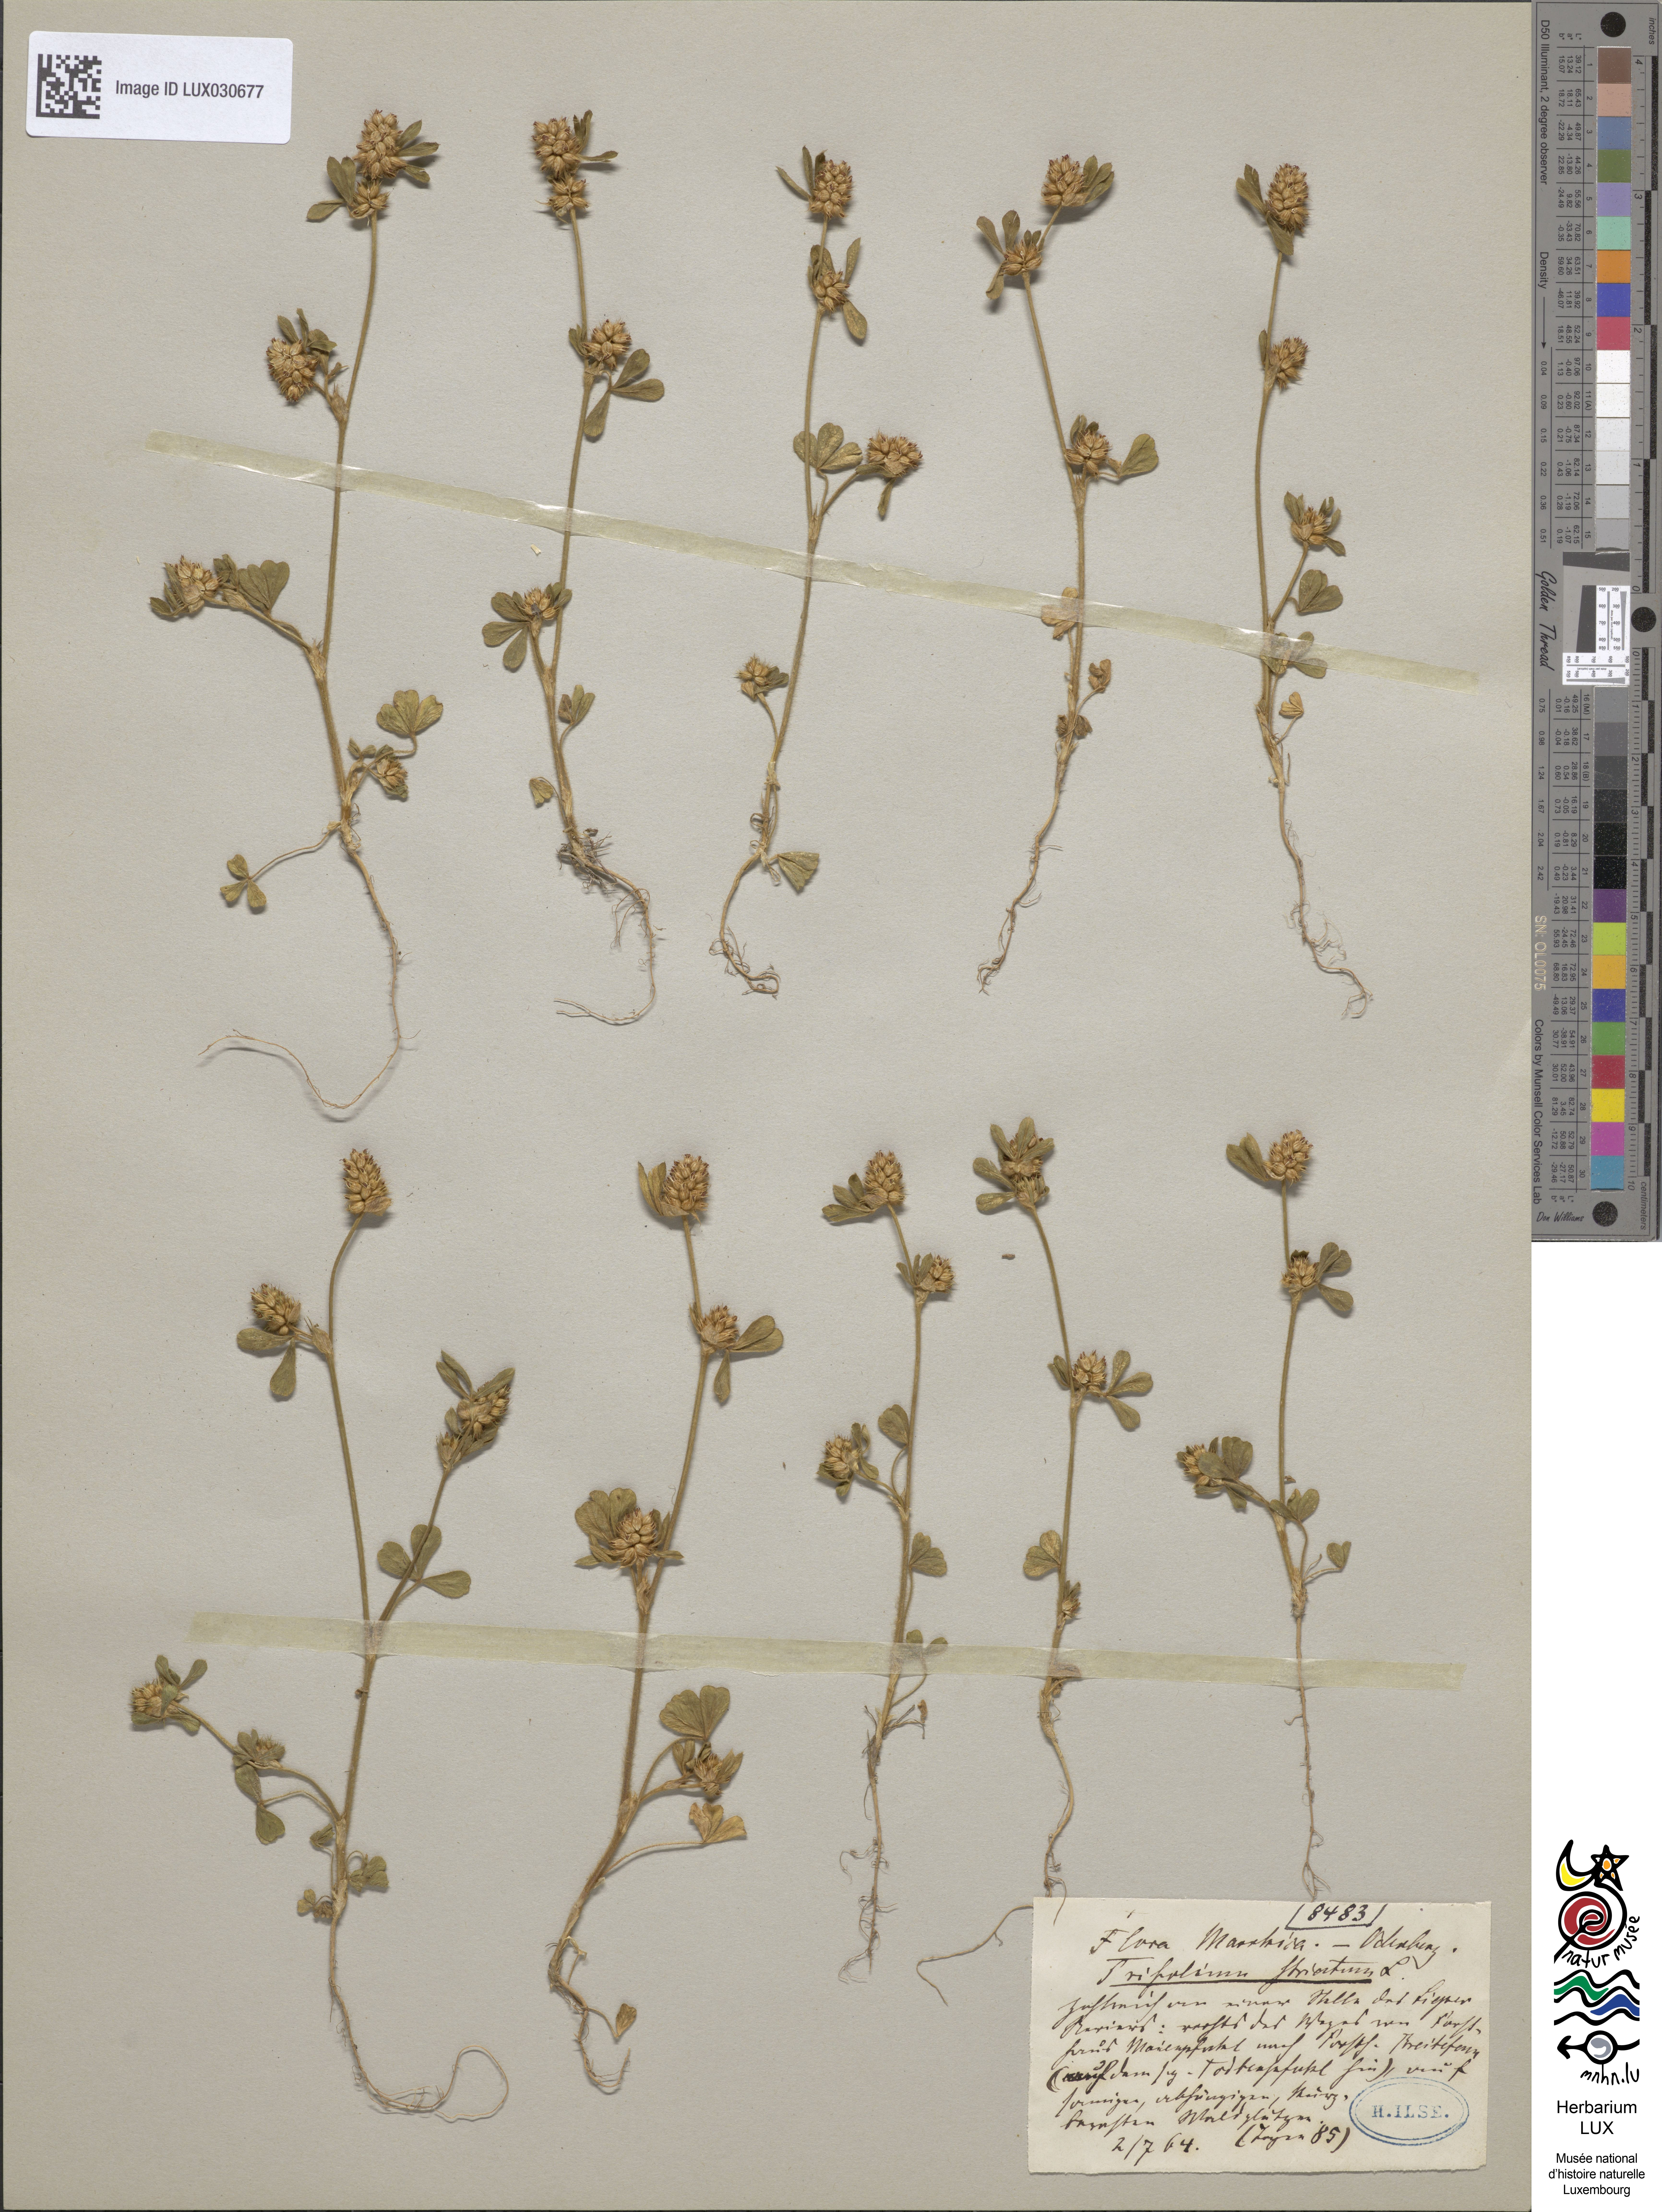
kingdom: Plantae
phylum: Tracheophyta
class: Magnoliopsida
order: Fabales
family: Fabaceae
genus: Trifolium
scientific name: Trifolium striatum
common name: Knotted clover
